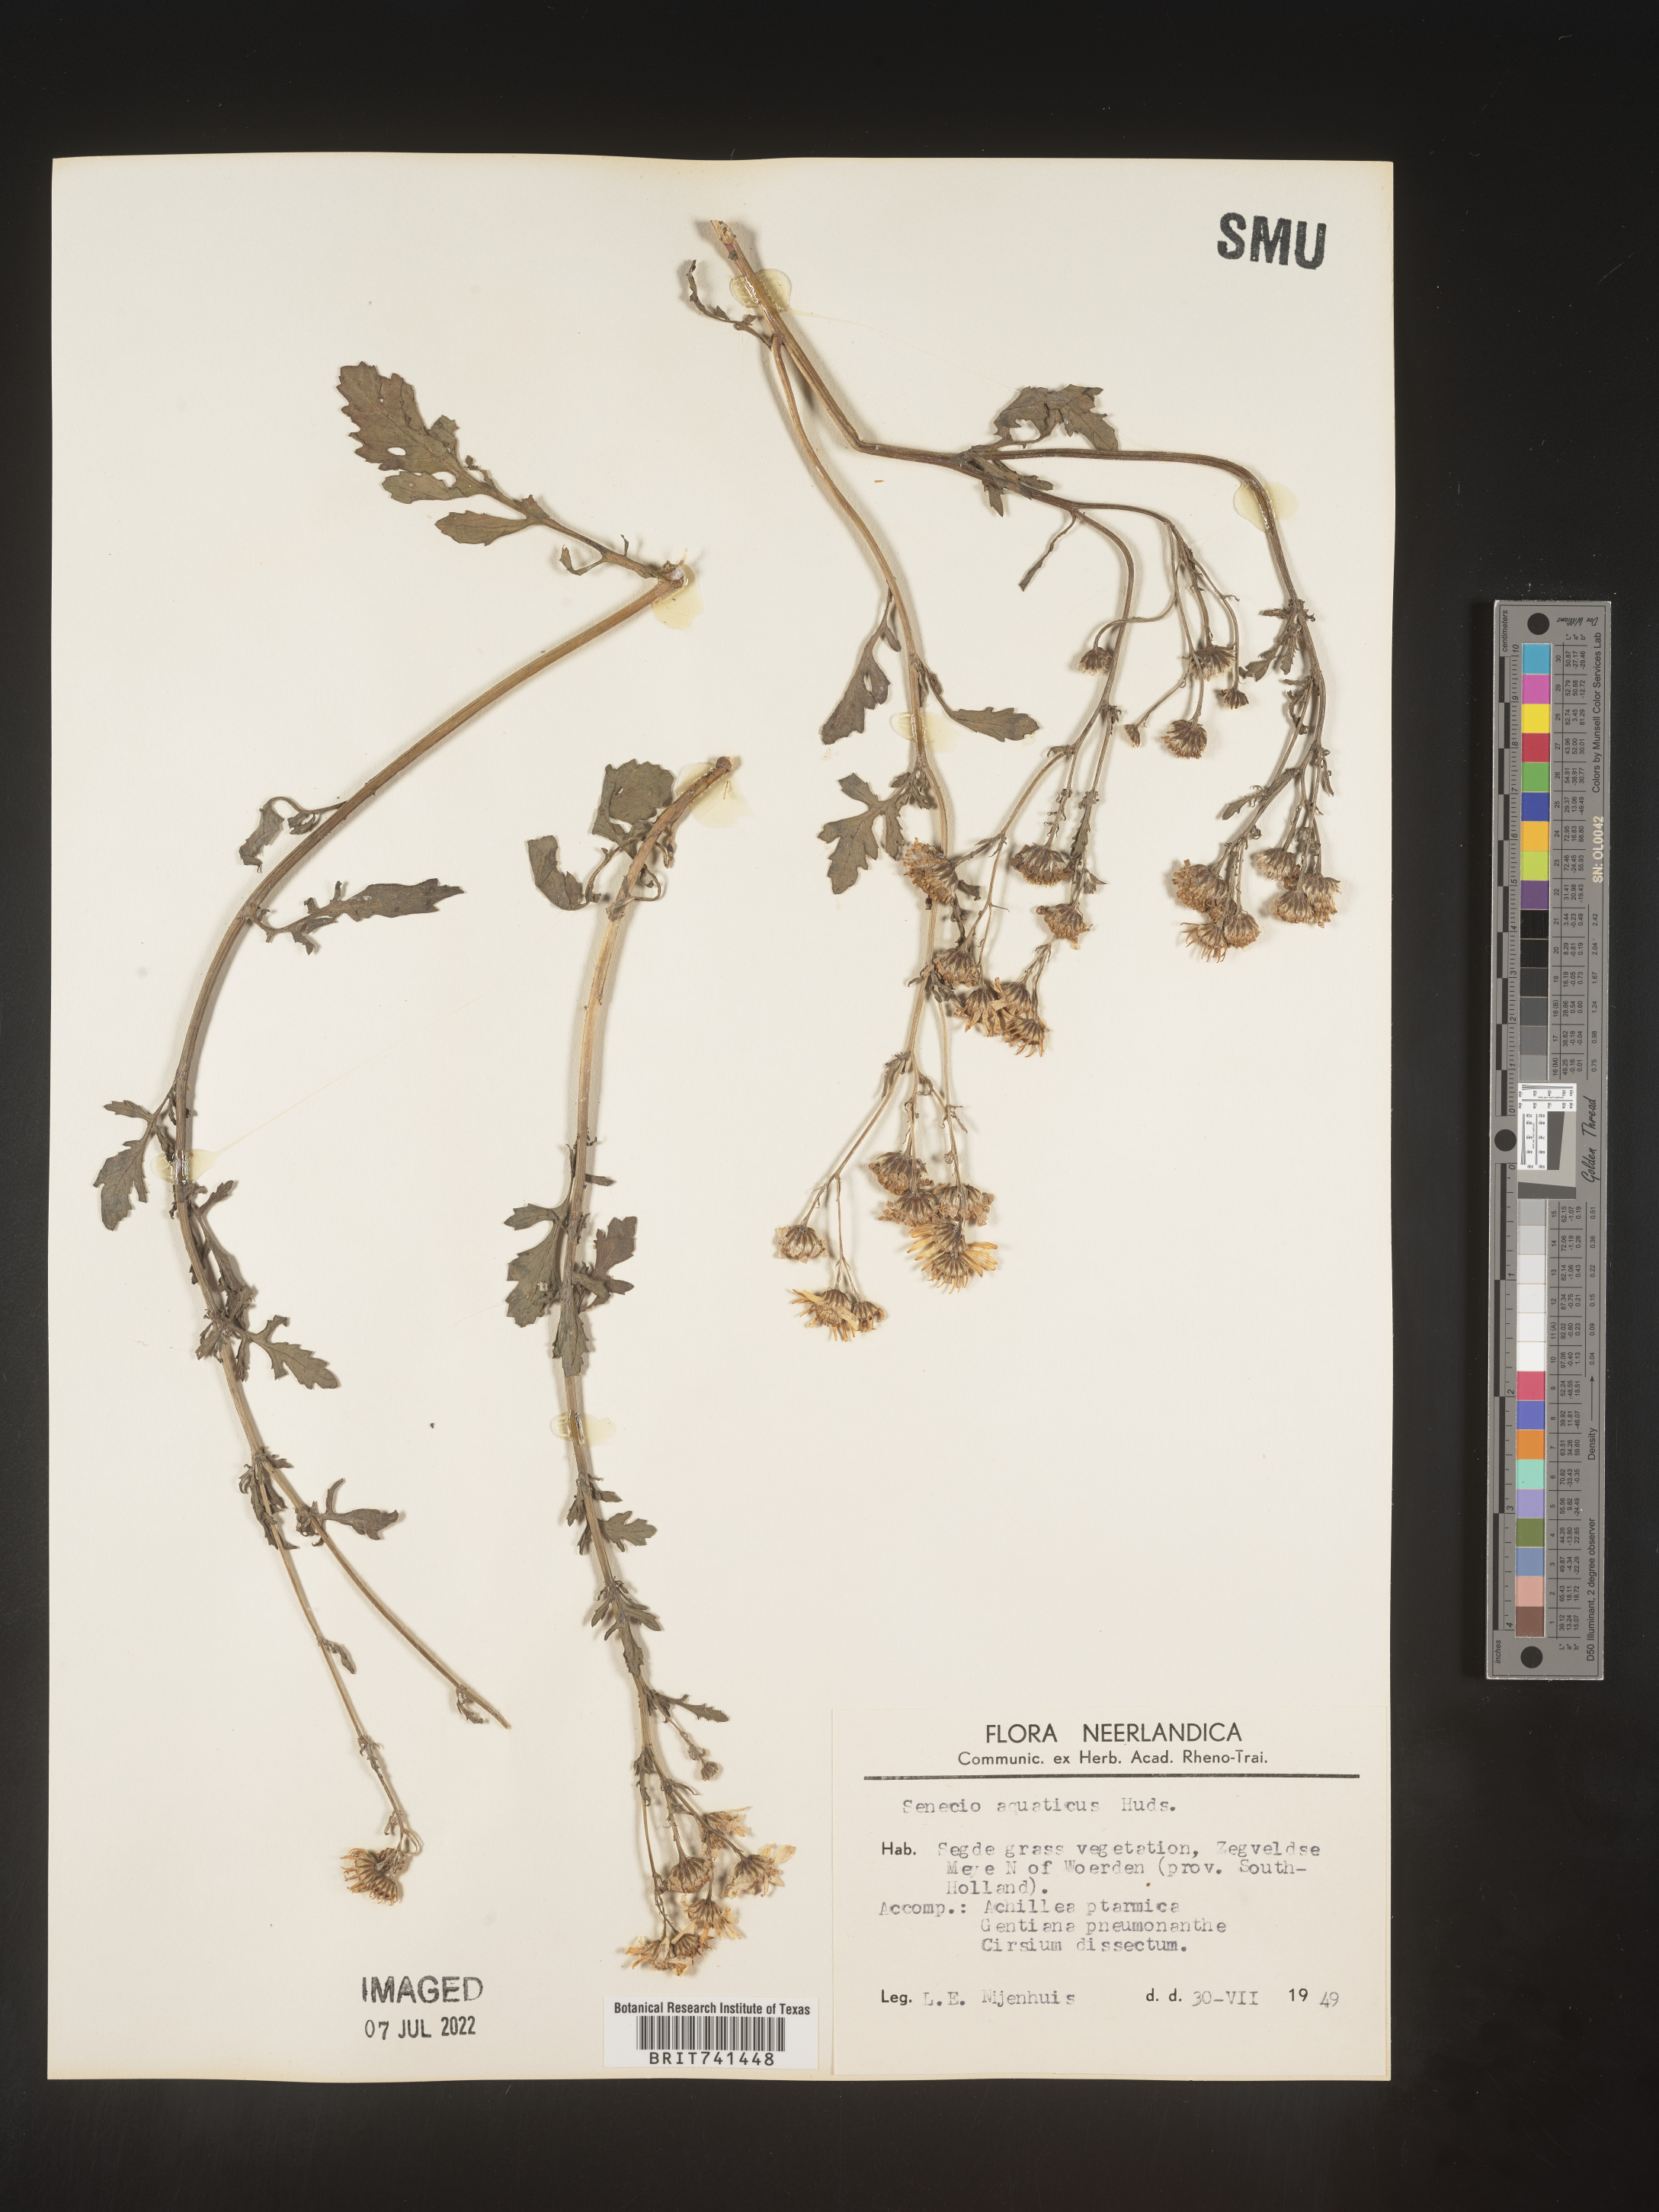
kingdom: Plantae
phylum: Tracheophyta
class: Magnoliopsida
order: Asterales
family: Asteraceae
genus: Senecio
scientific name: Senecio
